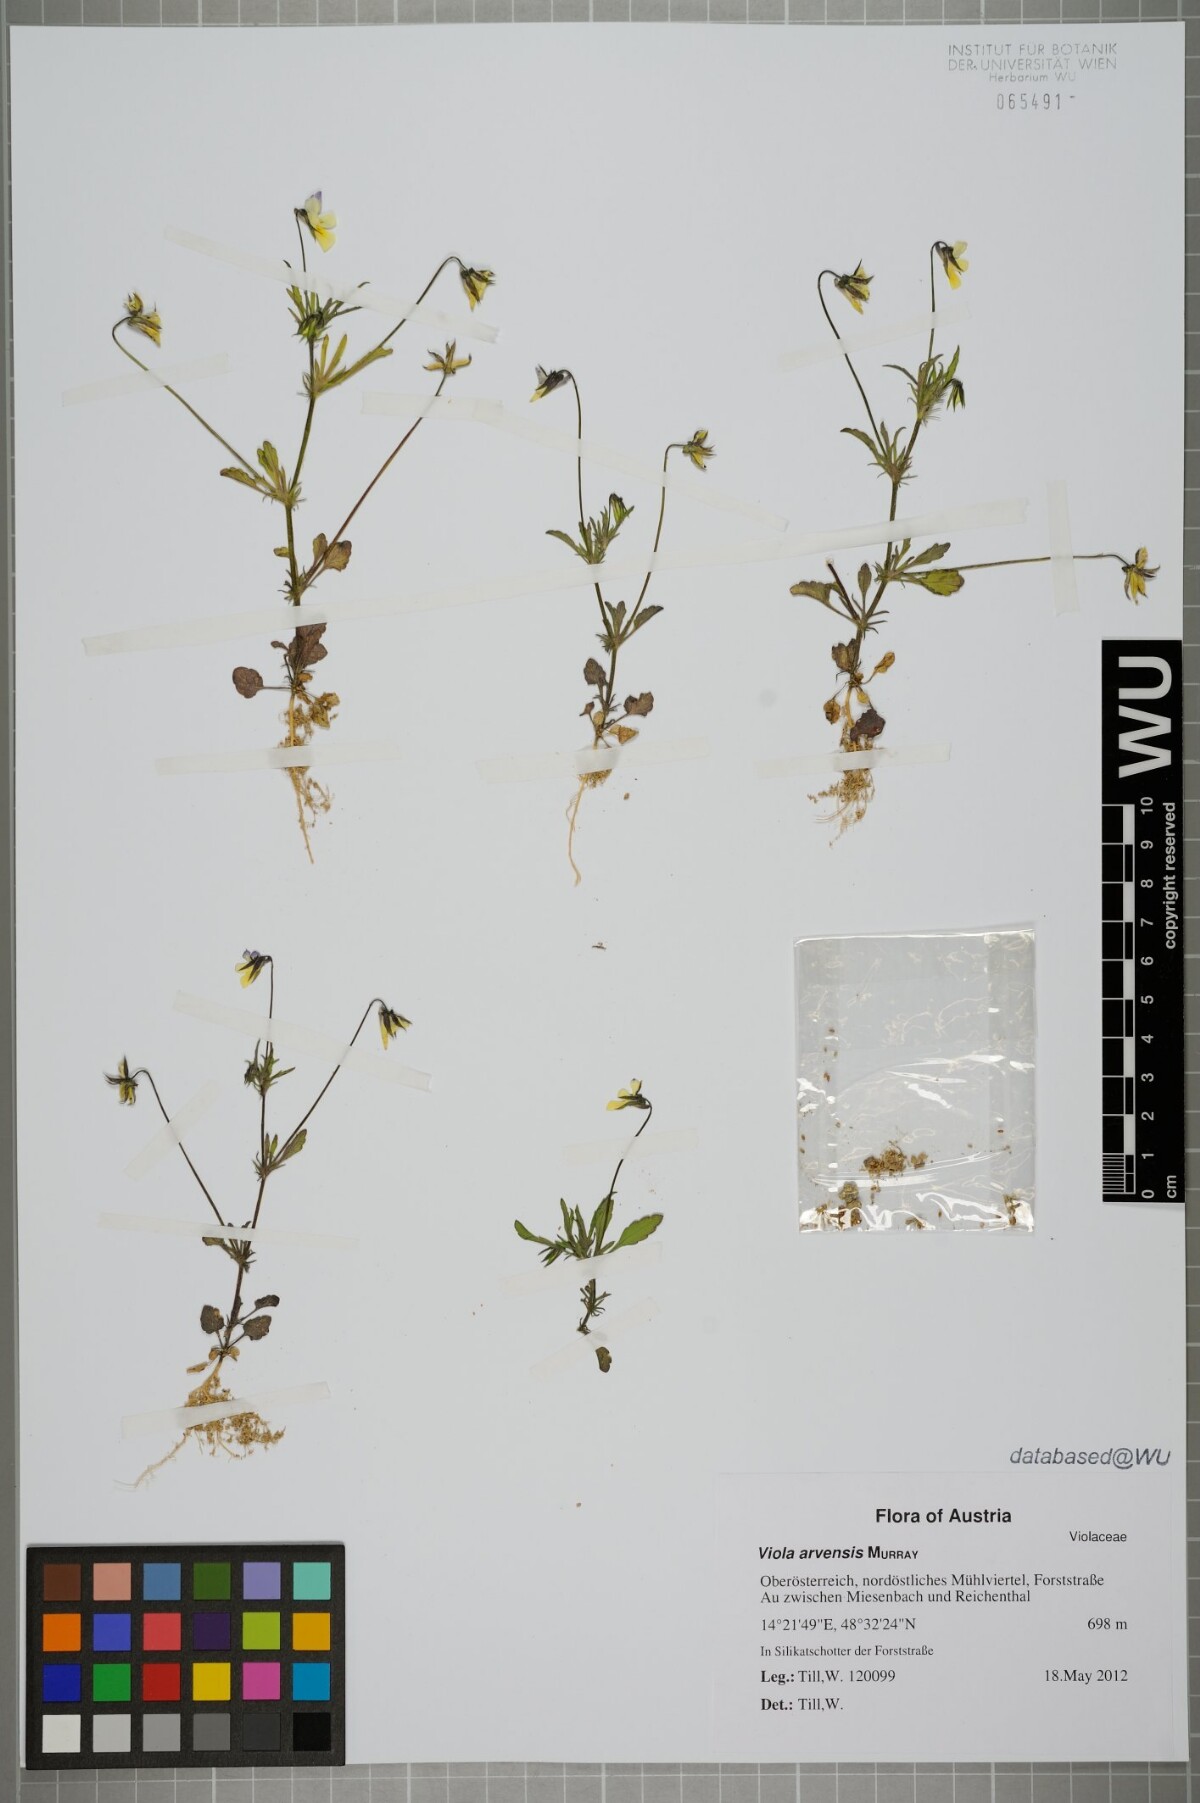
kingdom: Plantae
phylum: Tracheophyta
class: Magnoliopsida
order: Malpighiales
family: Violaceae
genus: Viola
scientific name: Viola arvensis
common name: Field pansy
